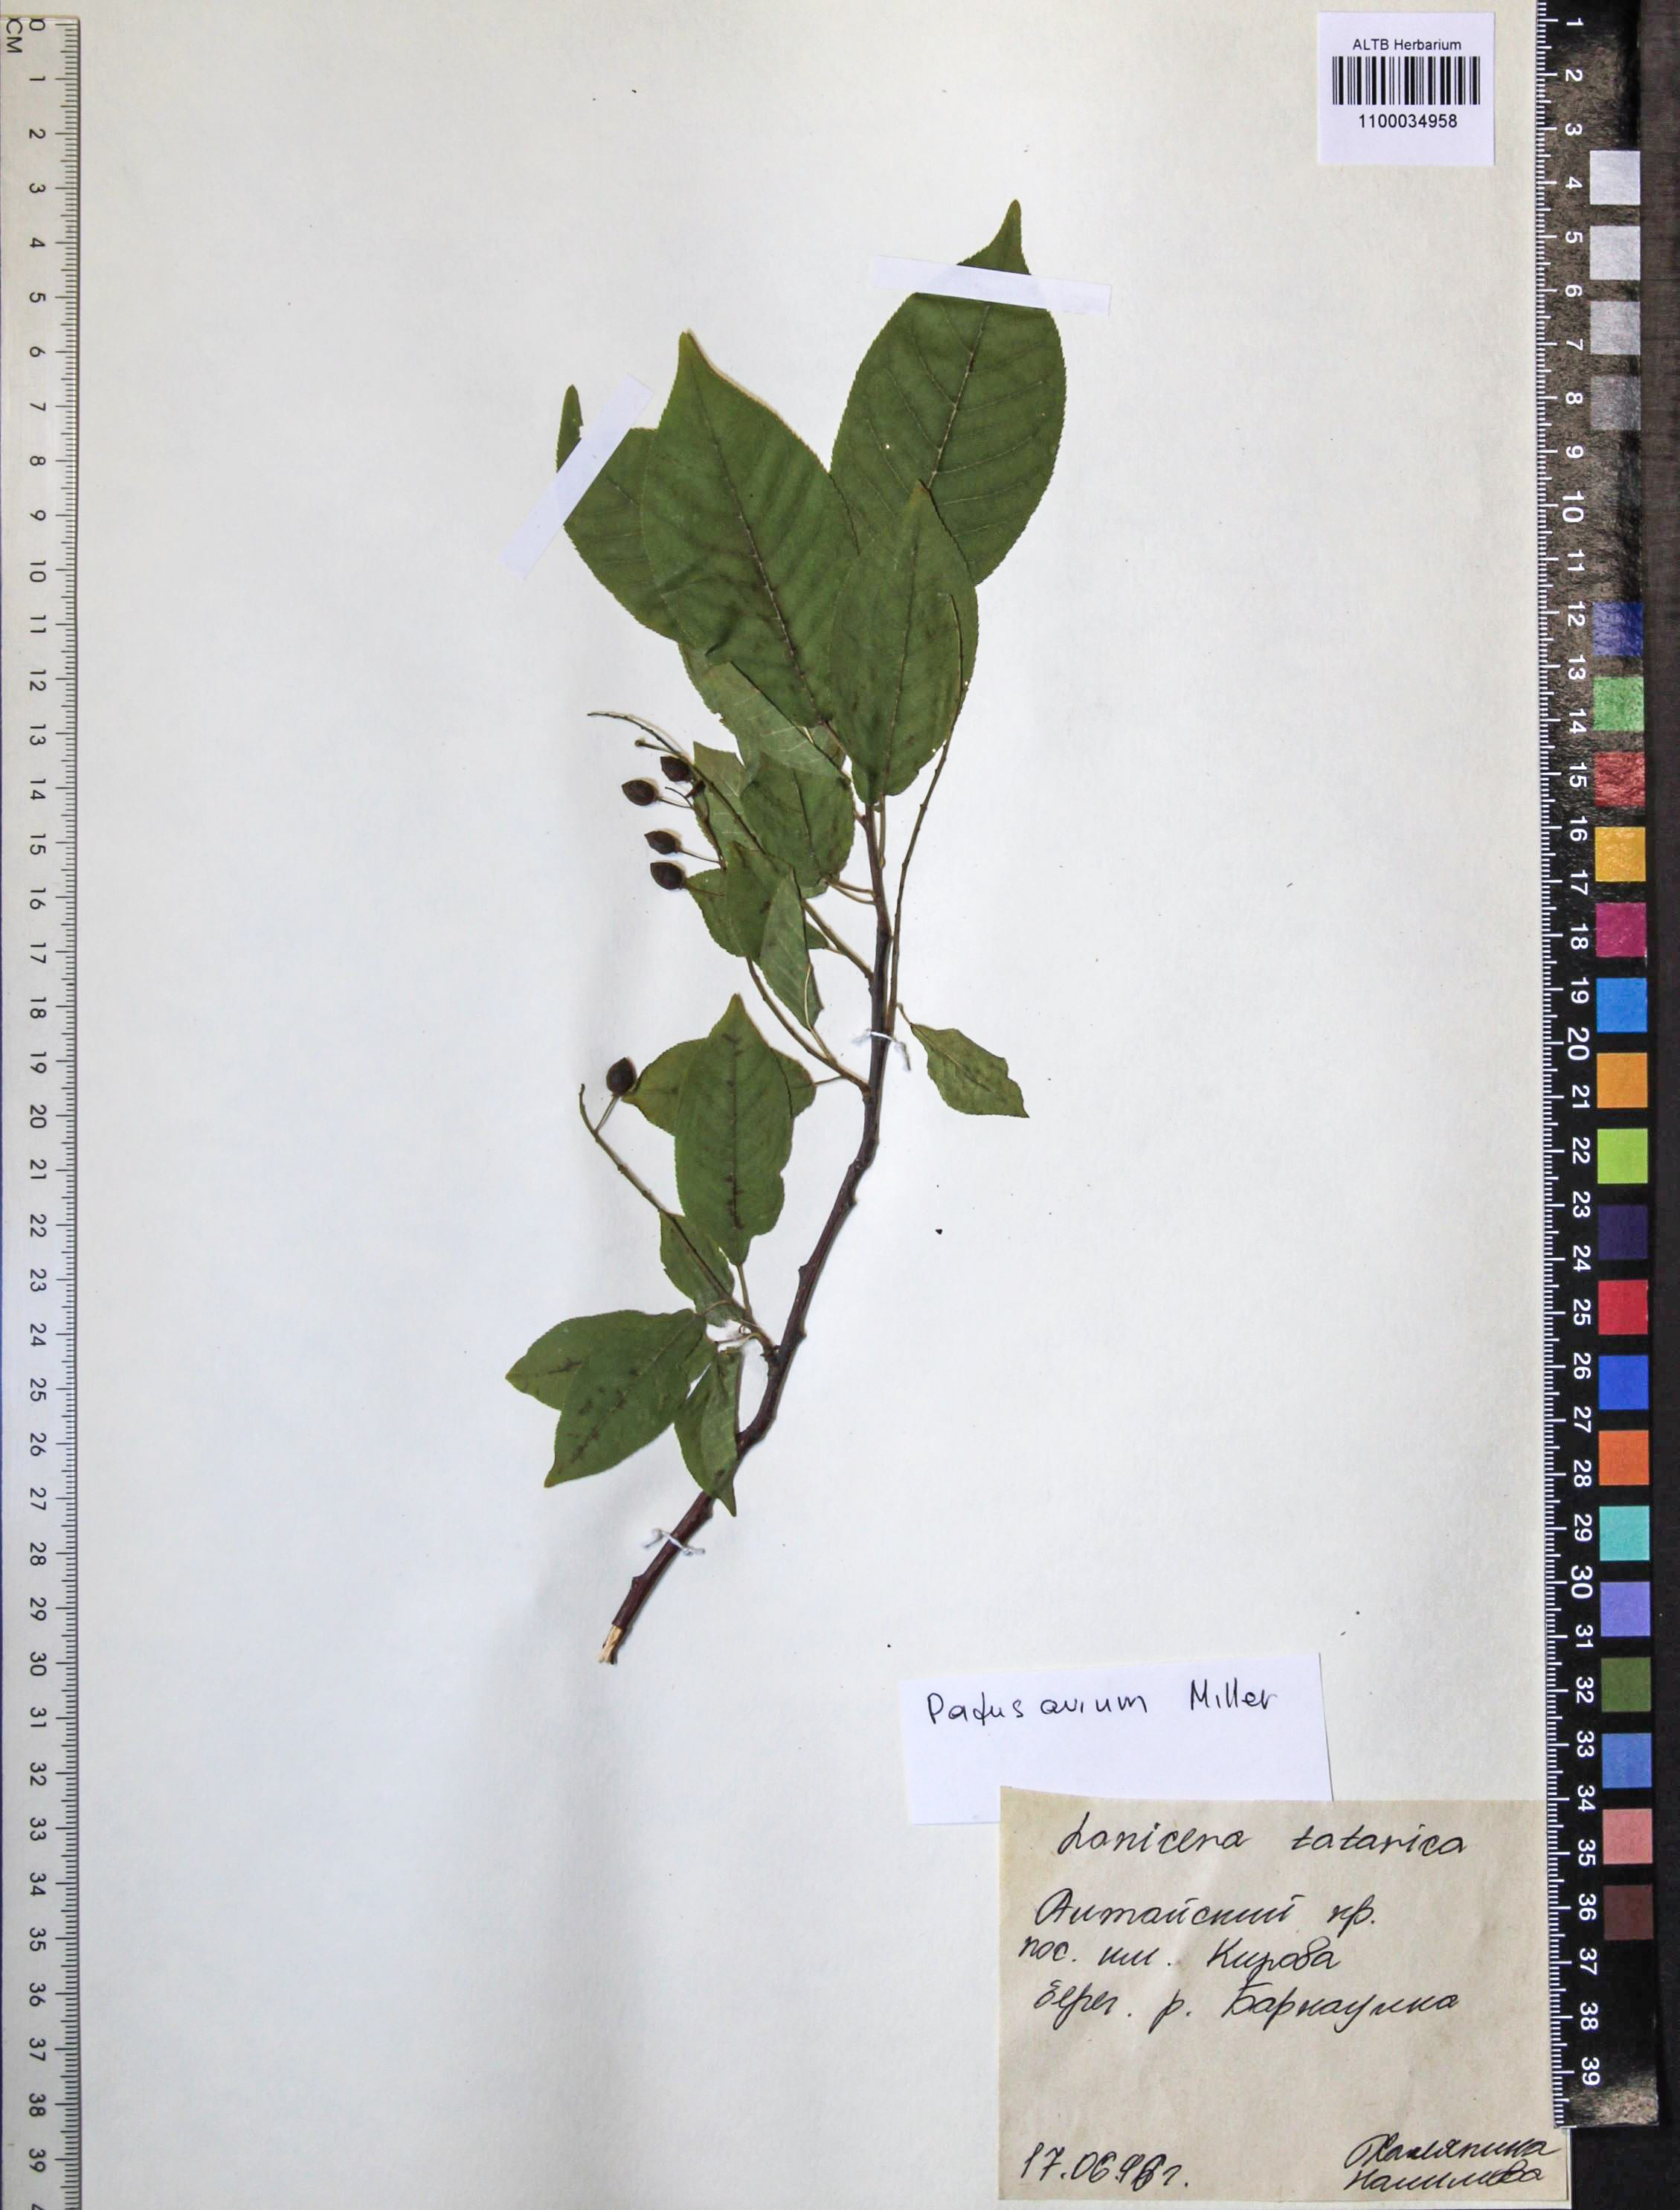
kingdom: Plantae
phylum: Tracheophyta
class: Magnoliopsida
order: Rosales
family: Rosaceae
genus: Prunus
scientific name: Prunus padus
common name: Bird cherry
